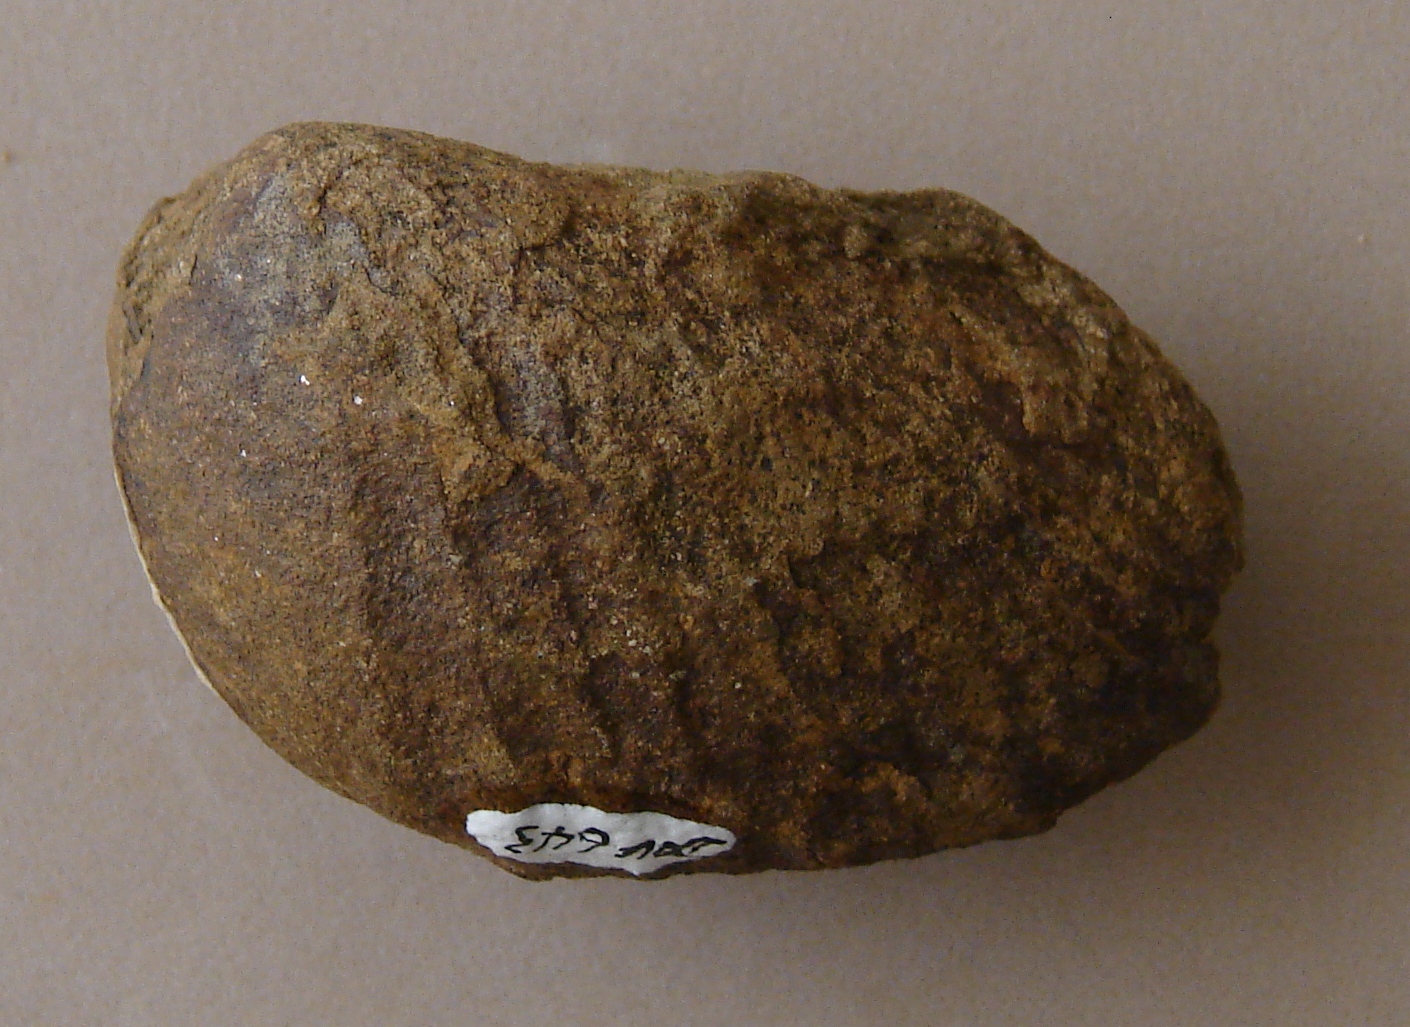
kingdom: Animalia
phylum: Mollusca
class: Bivalvia
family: Pholadomyidae
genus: Pholadomya
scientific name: Pholadomya fidicula
